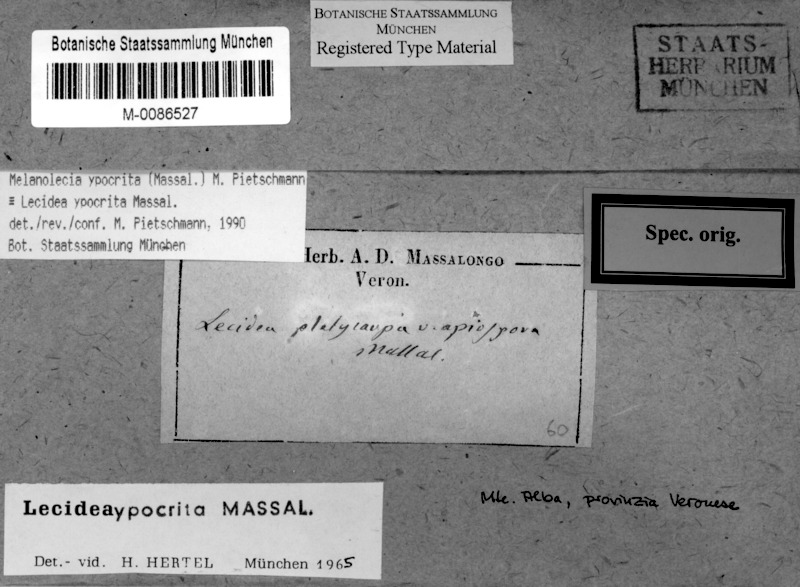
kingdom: Fungi
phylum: Ascomycota
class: Lecanoromycetes
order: Lecideales
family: Lecideaceae
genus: Farnoldia
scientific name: Farnoldia hypocrita
